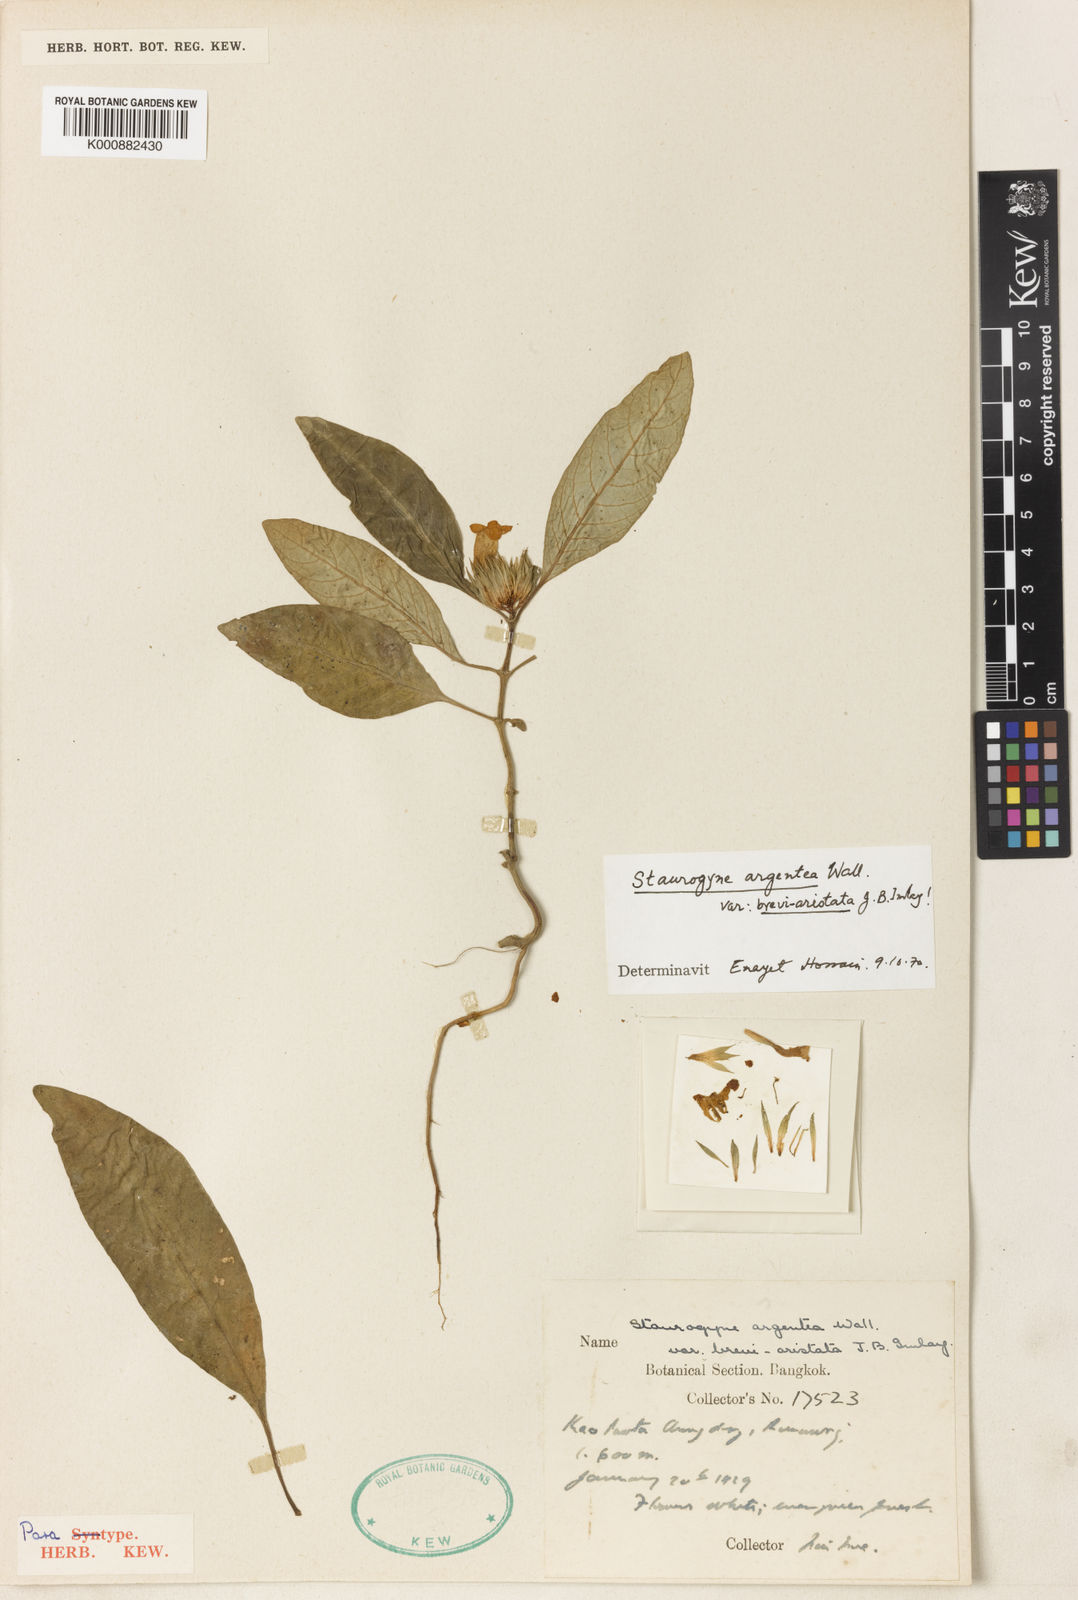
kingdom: Plantae
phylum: Tracheophyta
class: Magnoliopsida
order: Lamiales
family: Acanthaceae
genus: Staurogyne
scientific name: Staurogyne argentea
